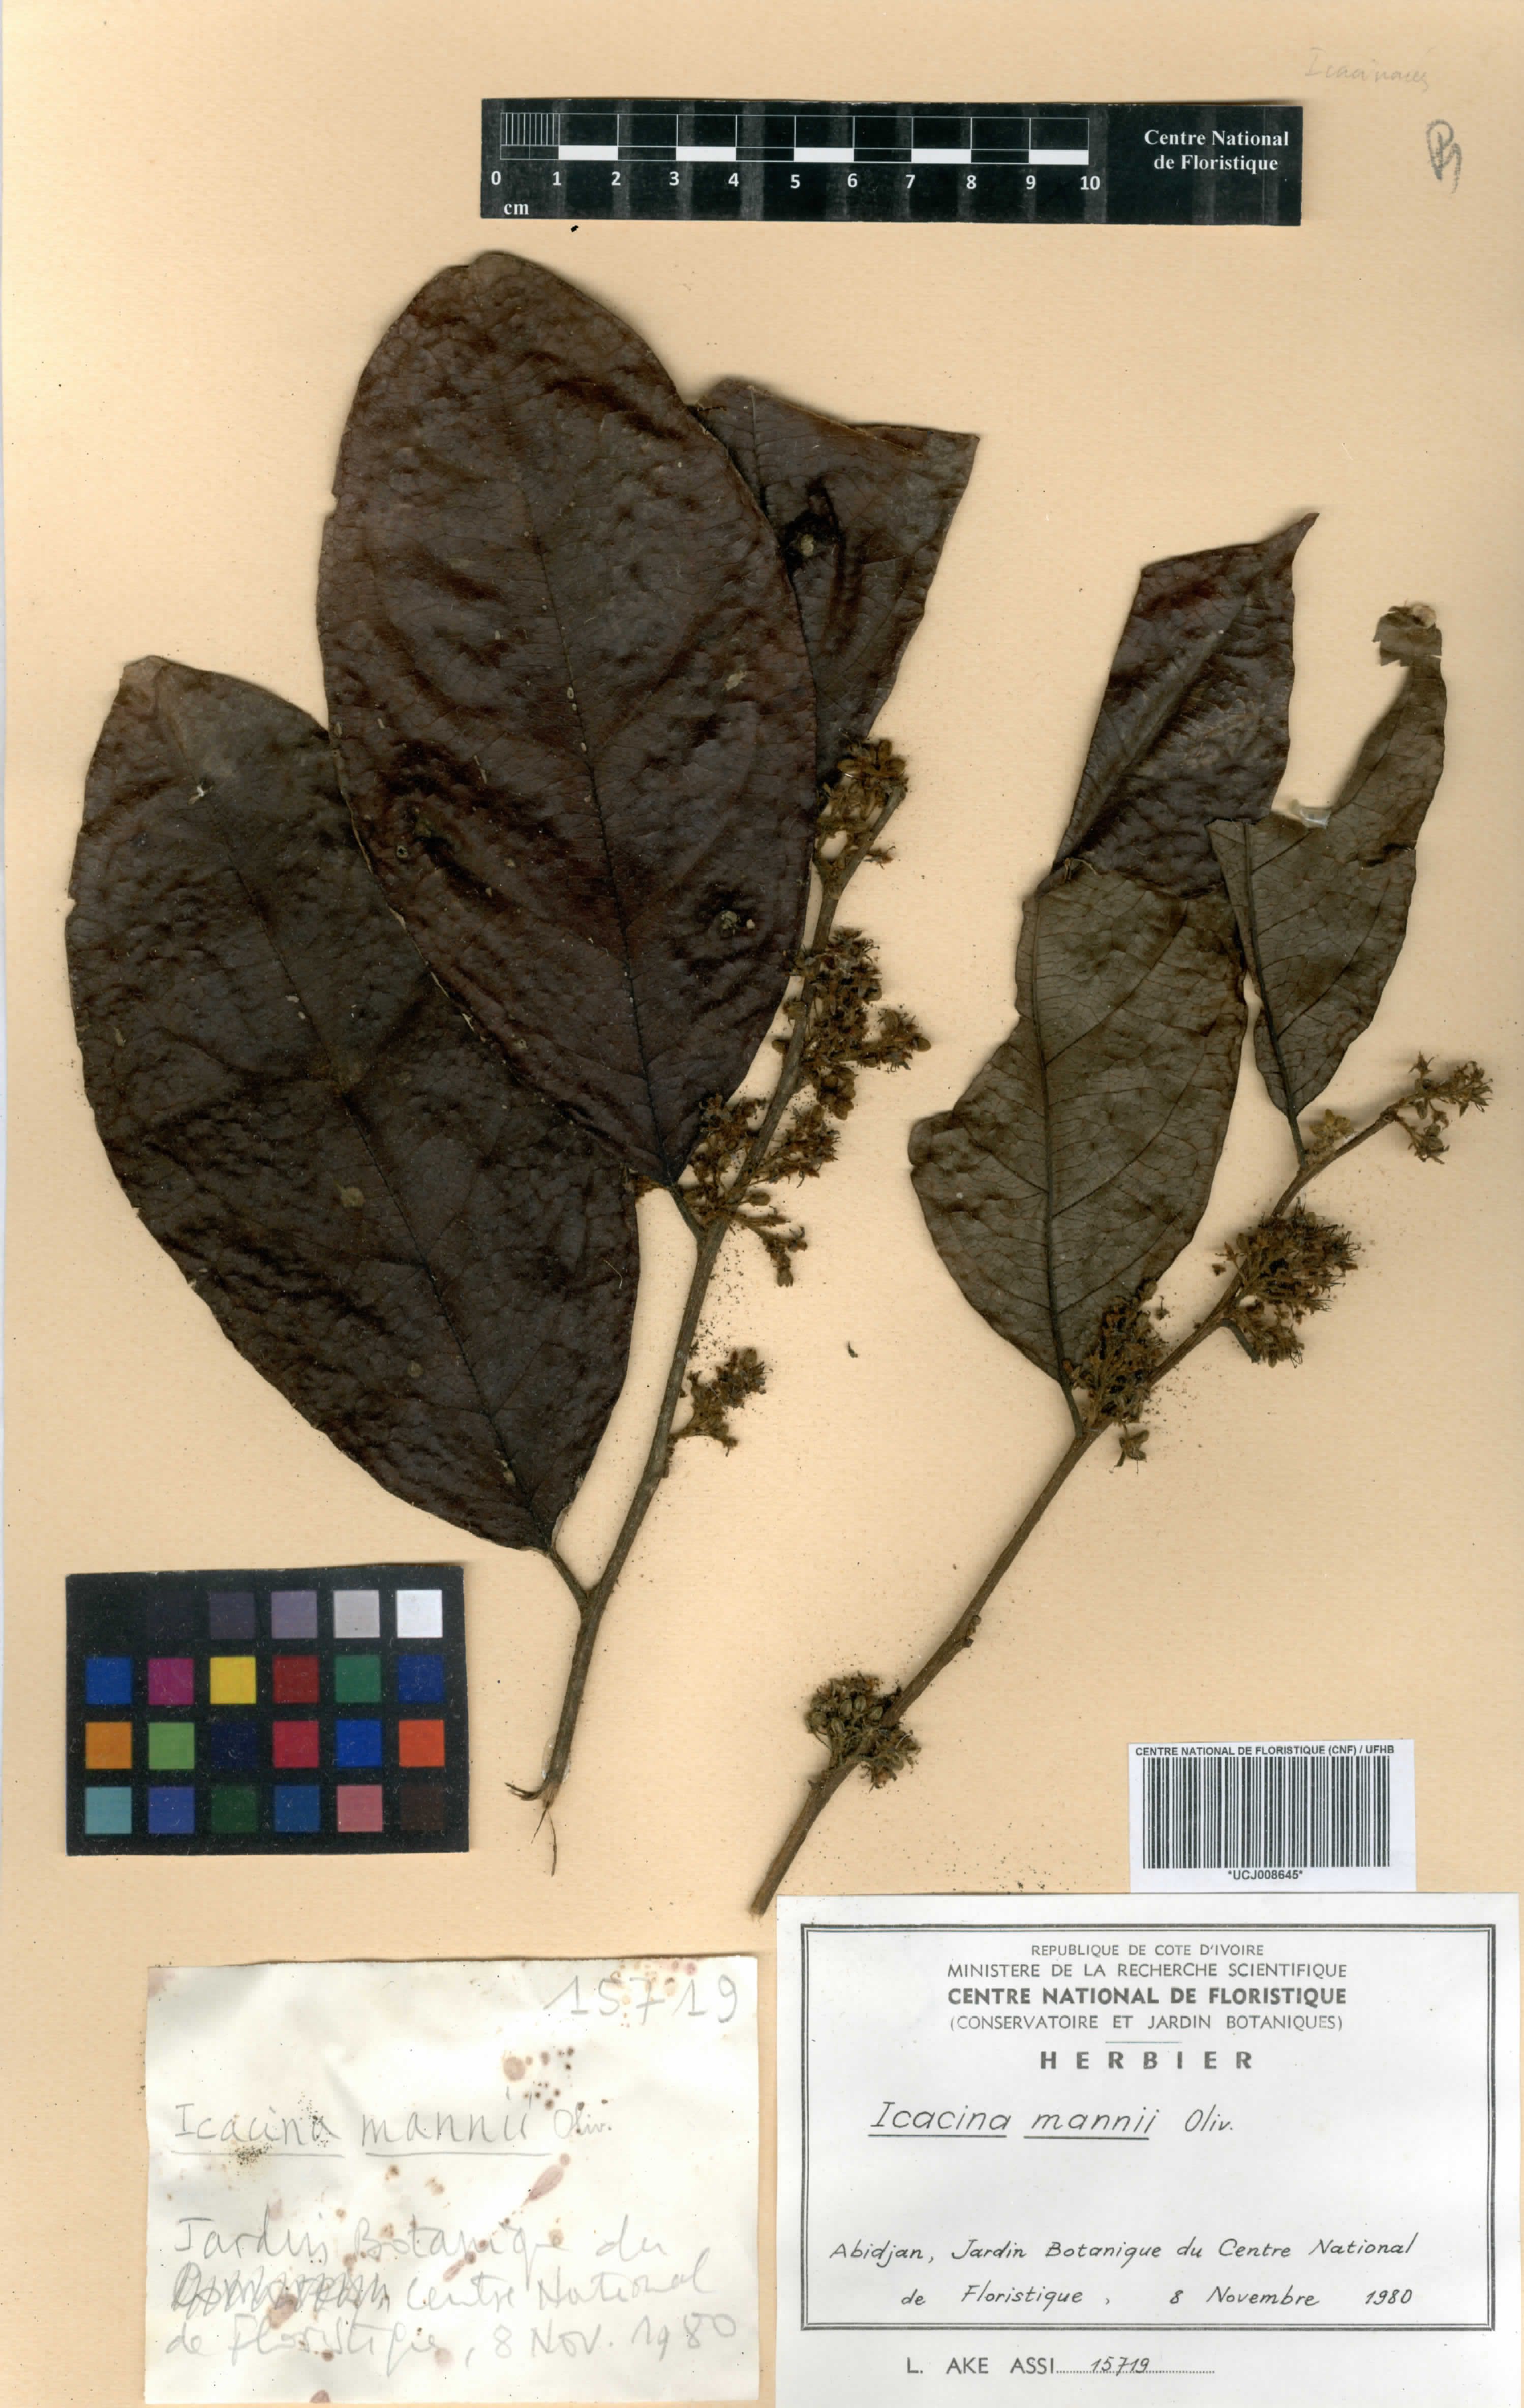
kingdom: Plantae
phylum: Tracheophyta
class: Magnoliopsida
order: Icacinales
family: Icacinaceae
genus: Icacina
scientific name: Icacina mannii
